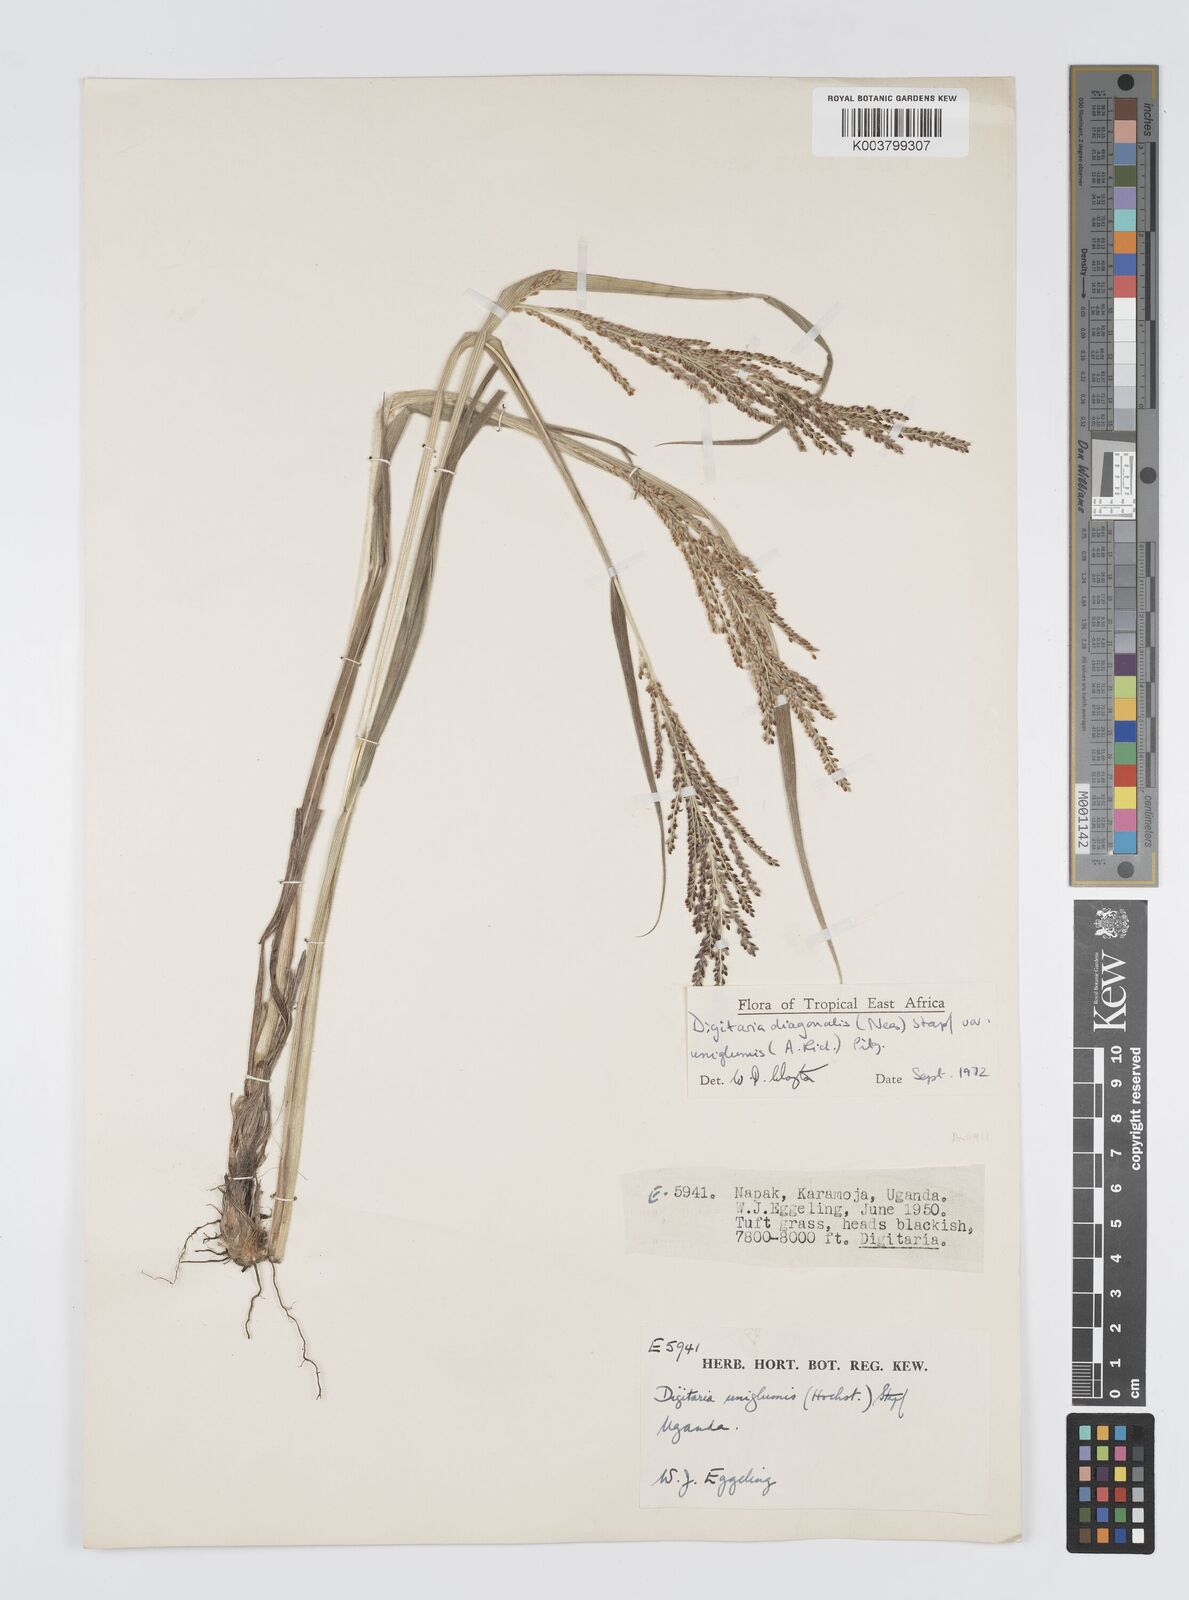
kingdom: Plantae
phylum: Tracheophyta
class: Liliopsida
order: Poales
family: Poaceae
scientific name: Poaceae
